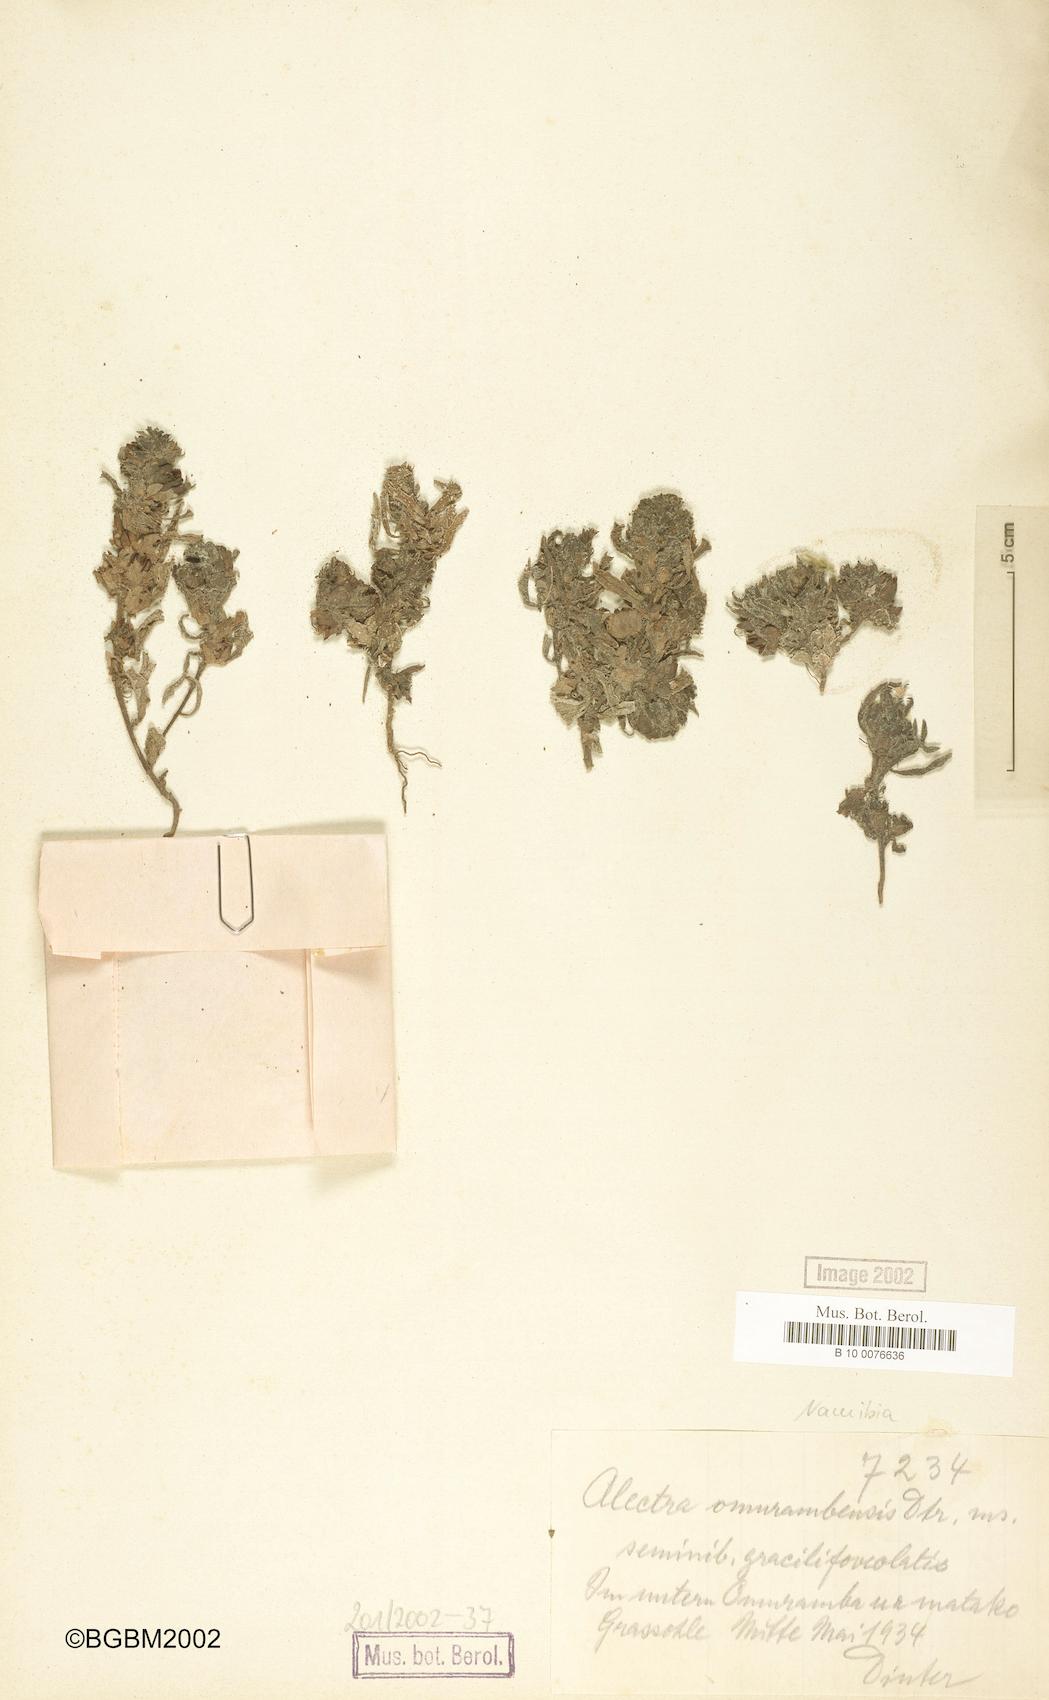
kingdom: Plantae
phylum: Tracheophyta
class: Magnoliopsida
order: Lamiales
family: Orobanchaceae
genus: Alectra
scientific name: Alectra aurantiaca
